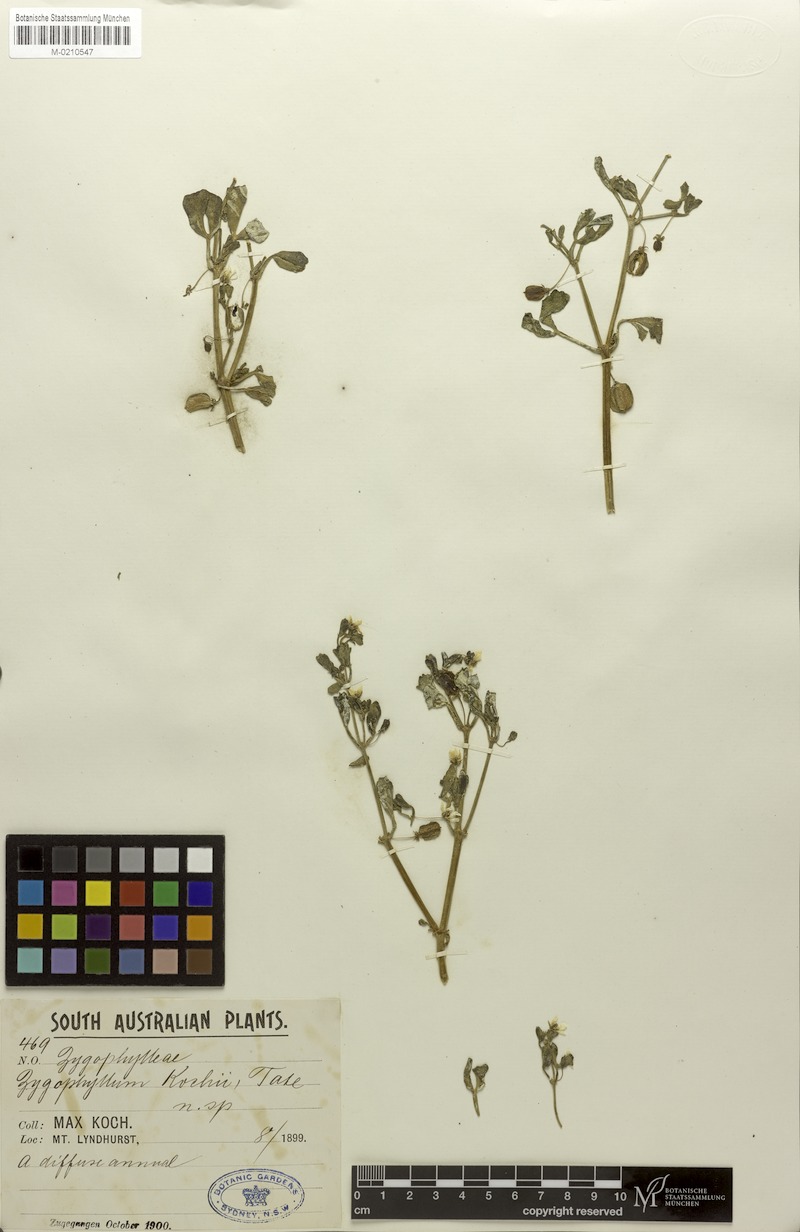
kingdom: Plantae
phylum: Tracheophyta
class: Magnoliopsida
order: Zygophyllales
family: Zygophyllaceae
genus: Roepera
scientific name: Roepera kochii
